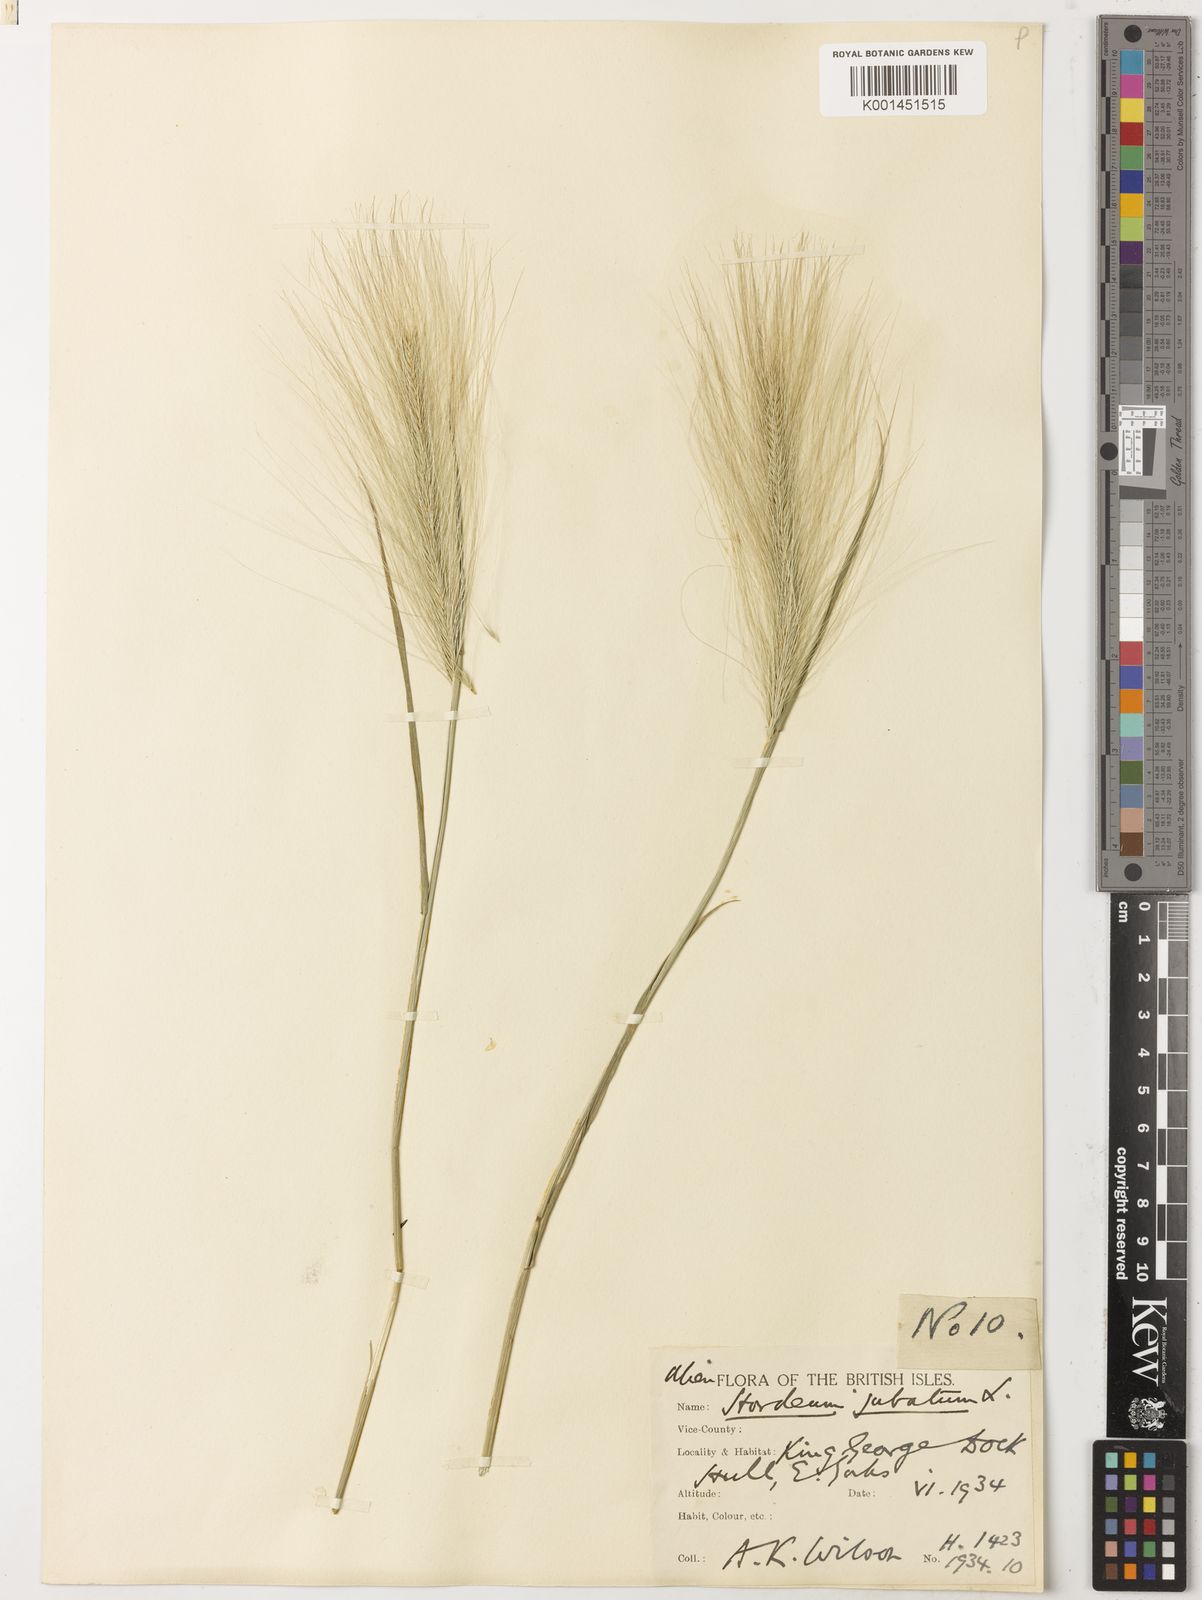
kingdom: Plantae
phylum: Tracheophyta
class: Liliopsida
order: Poales
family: Poaceae
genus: Hordeum
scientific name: Hordeum jubatum
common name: Foxtail barley
